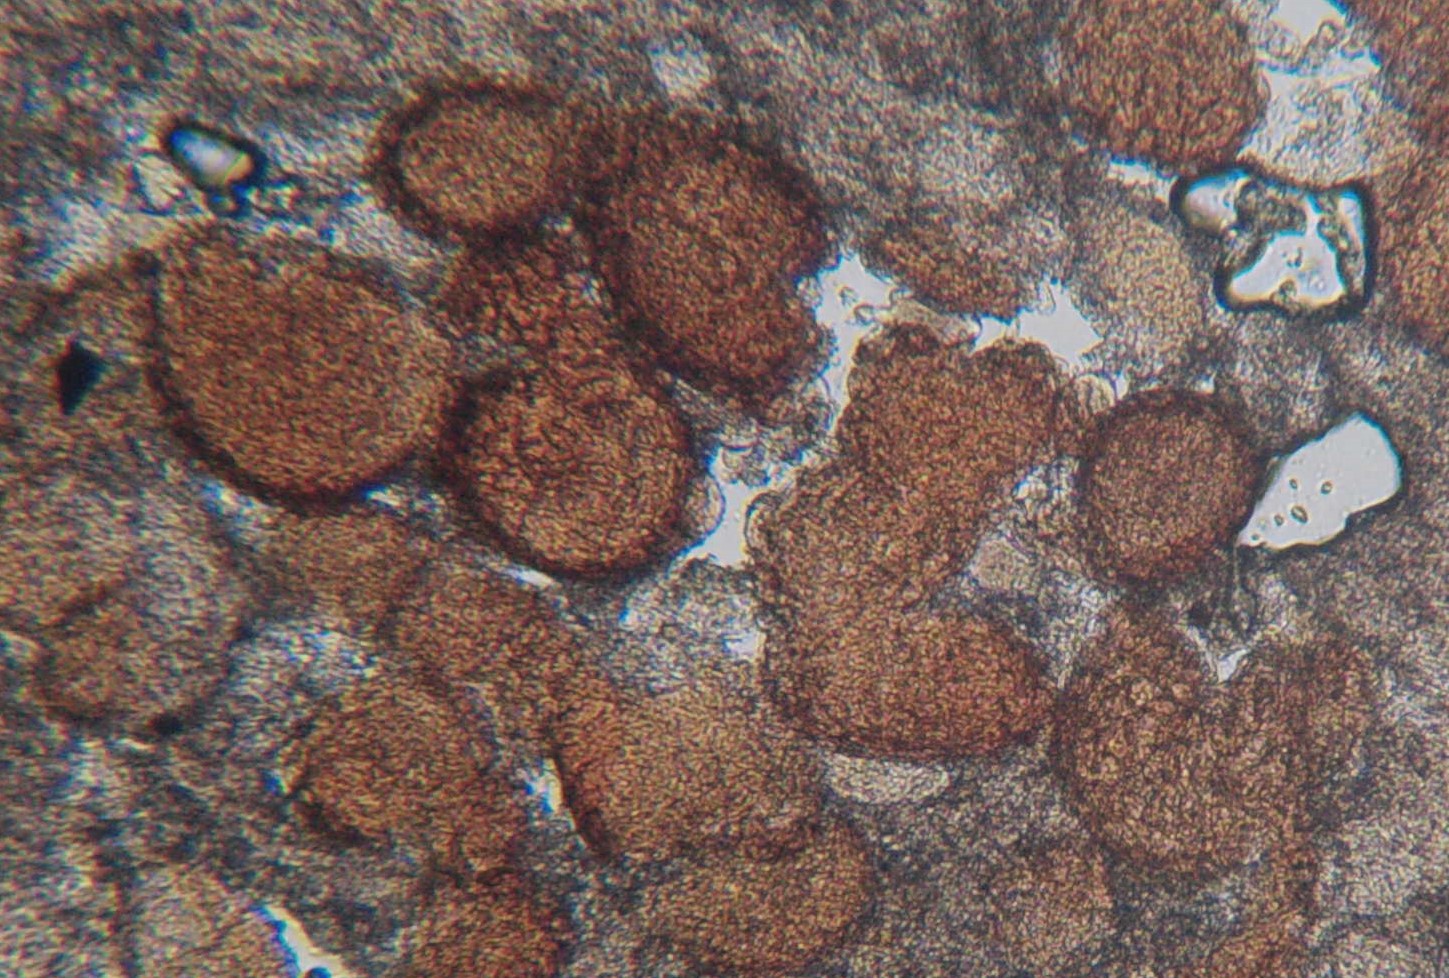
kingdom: Fungi
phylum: Ascomycota
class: Leotiomycetes
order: Helotiales
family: Erysiphaceae
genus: Golovinomyces
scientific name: Golovinomyces cichoracearum
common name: kurvblomst-meldug
